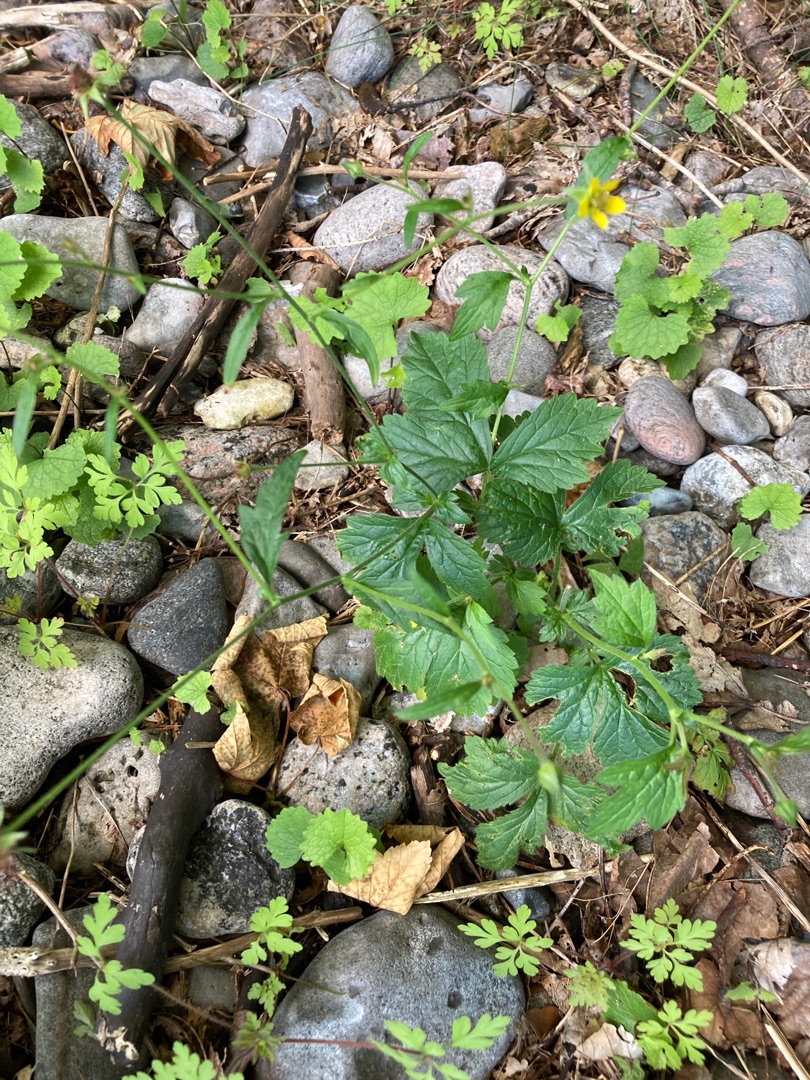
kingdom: Plantae
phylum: Tracheophyta
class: Magnoliopsida
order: Rosales
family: Rosaceae
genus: Geum
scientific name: Geum urbanum
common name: Feber-nellikerod
